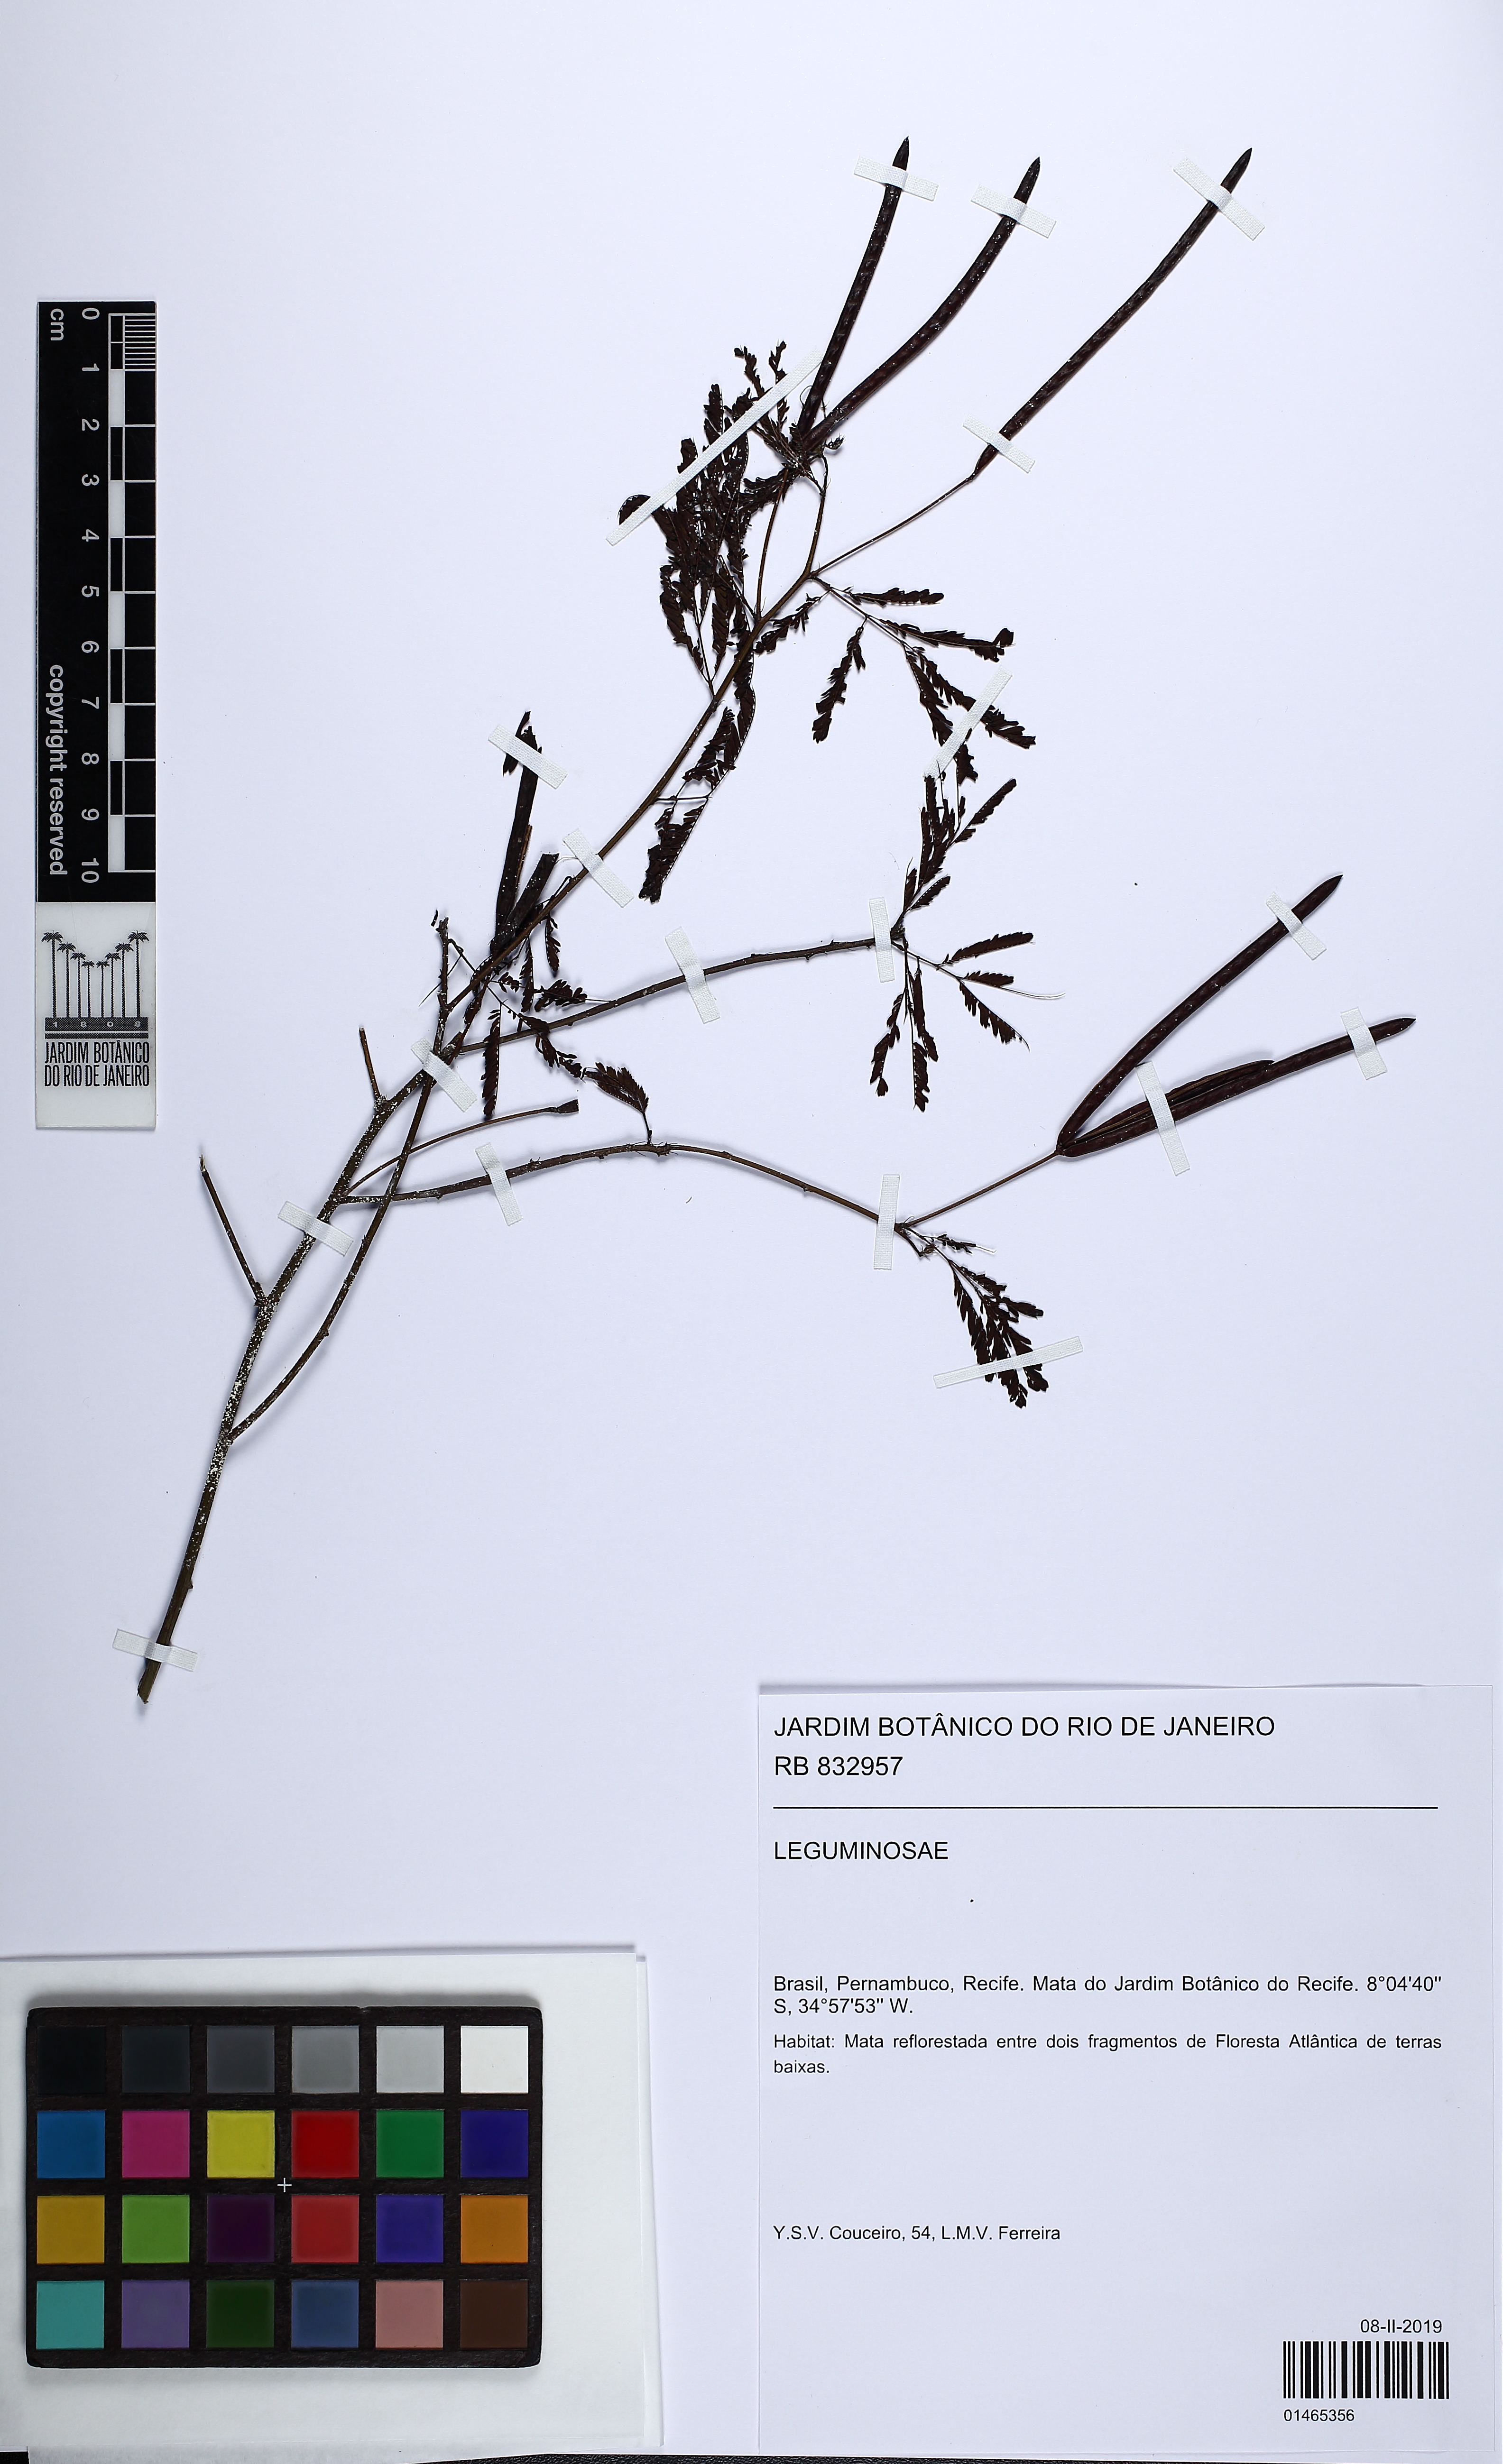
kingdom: Plantae
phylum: Tracheophyta
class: Magnoliopsida
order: Fabales
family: Fabaceae
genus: Desmanthus
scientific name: Desmanthus
